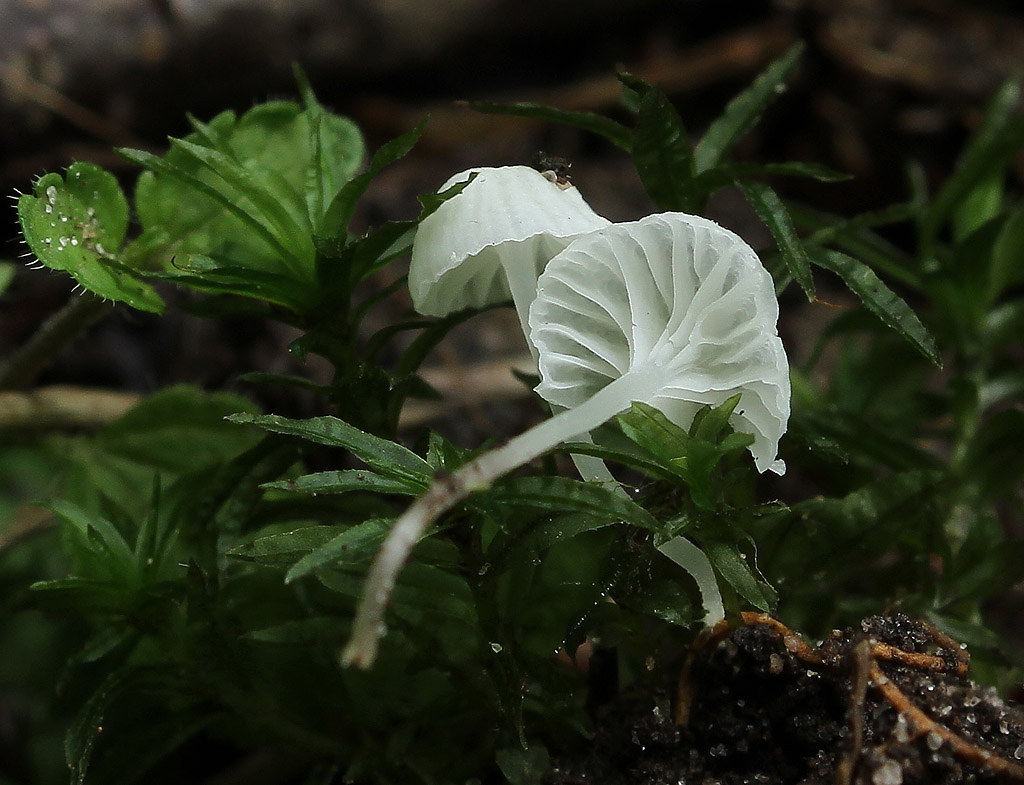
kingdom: Fungi
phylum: Basidiomycota
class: Agaricomycetes
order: Agaricales
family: Mycenaceae
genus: Atheniella
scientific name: Atheniella delectabilis
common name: nitrøs huesvamp
